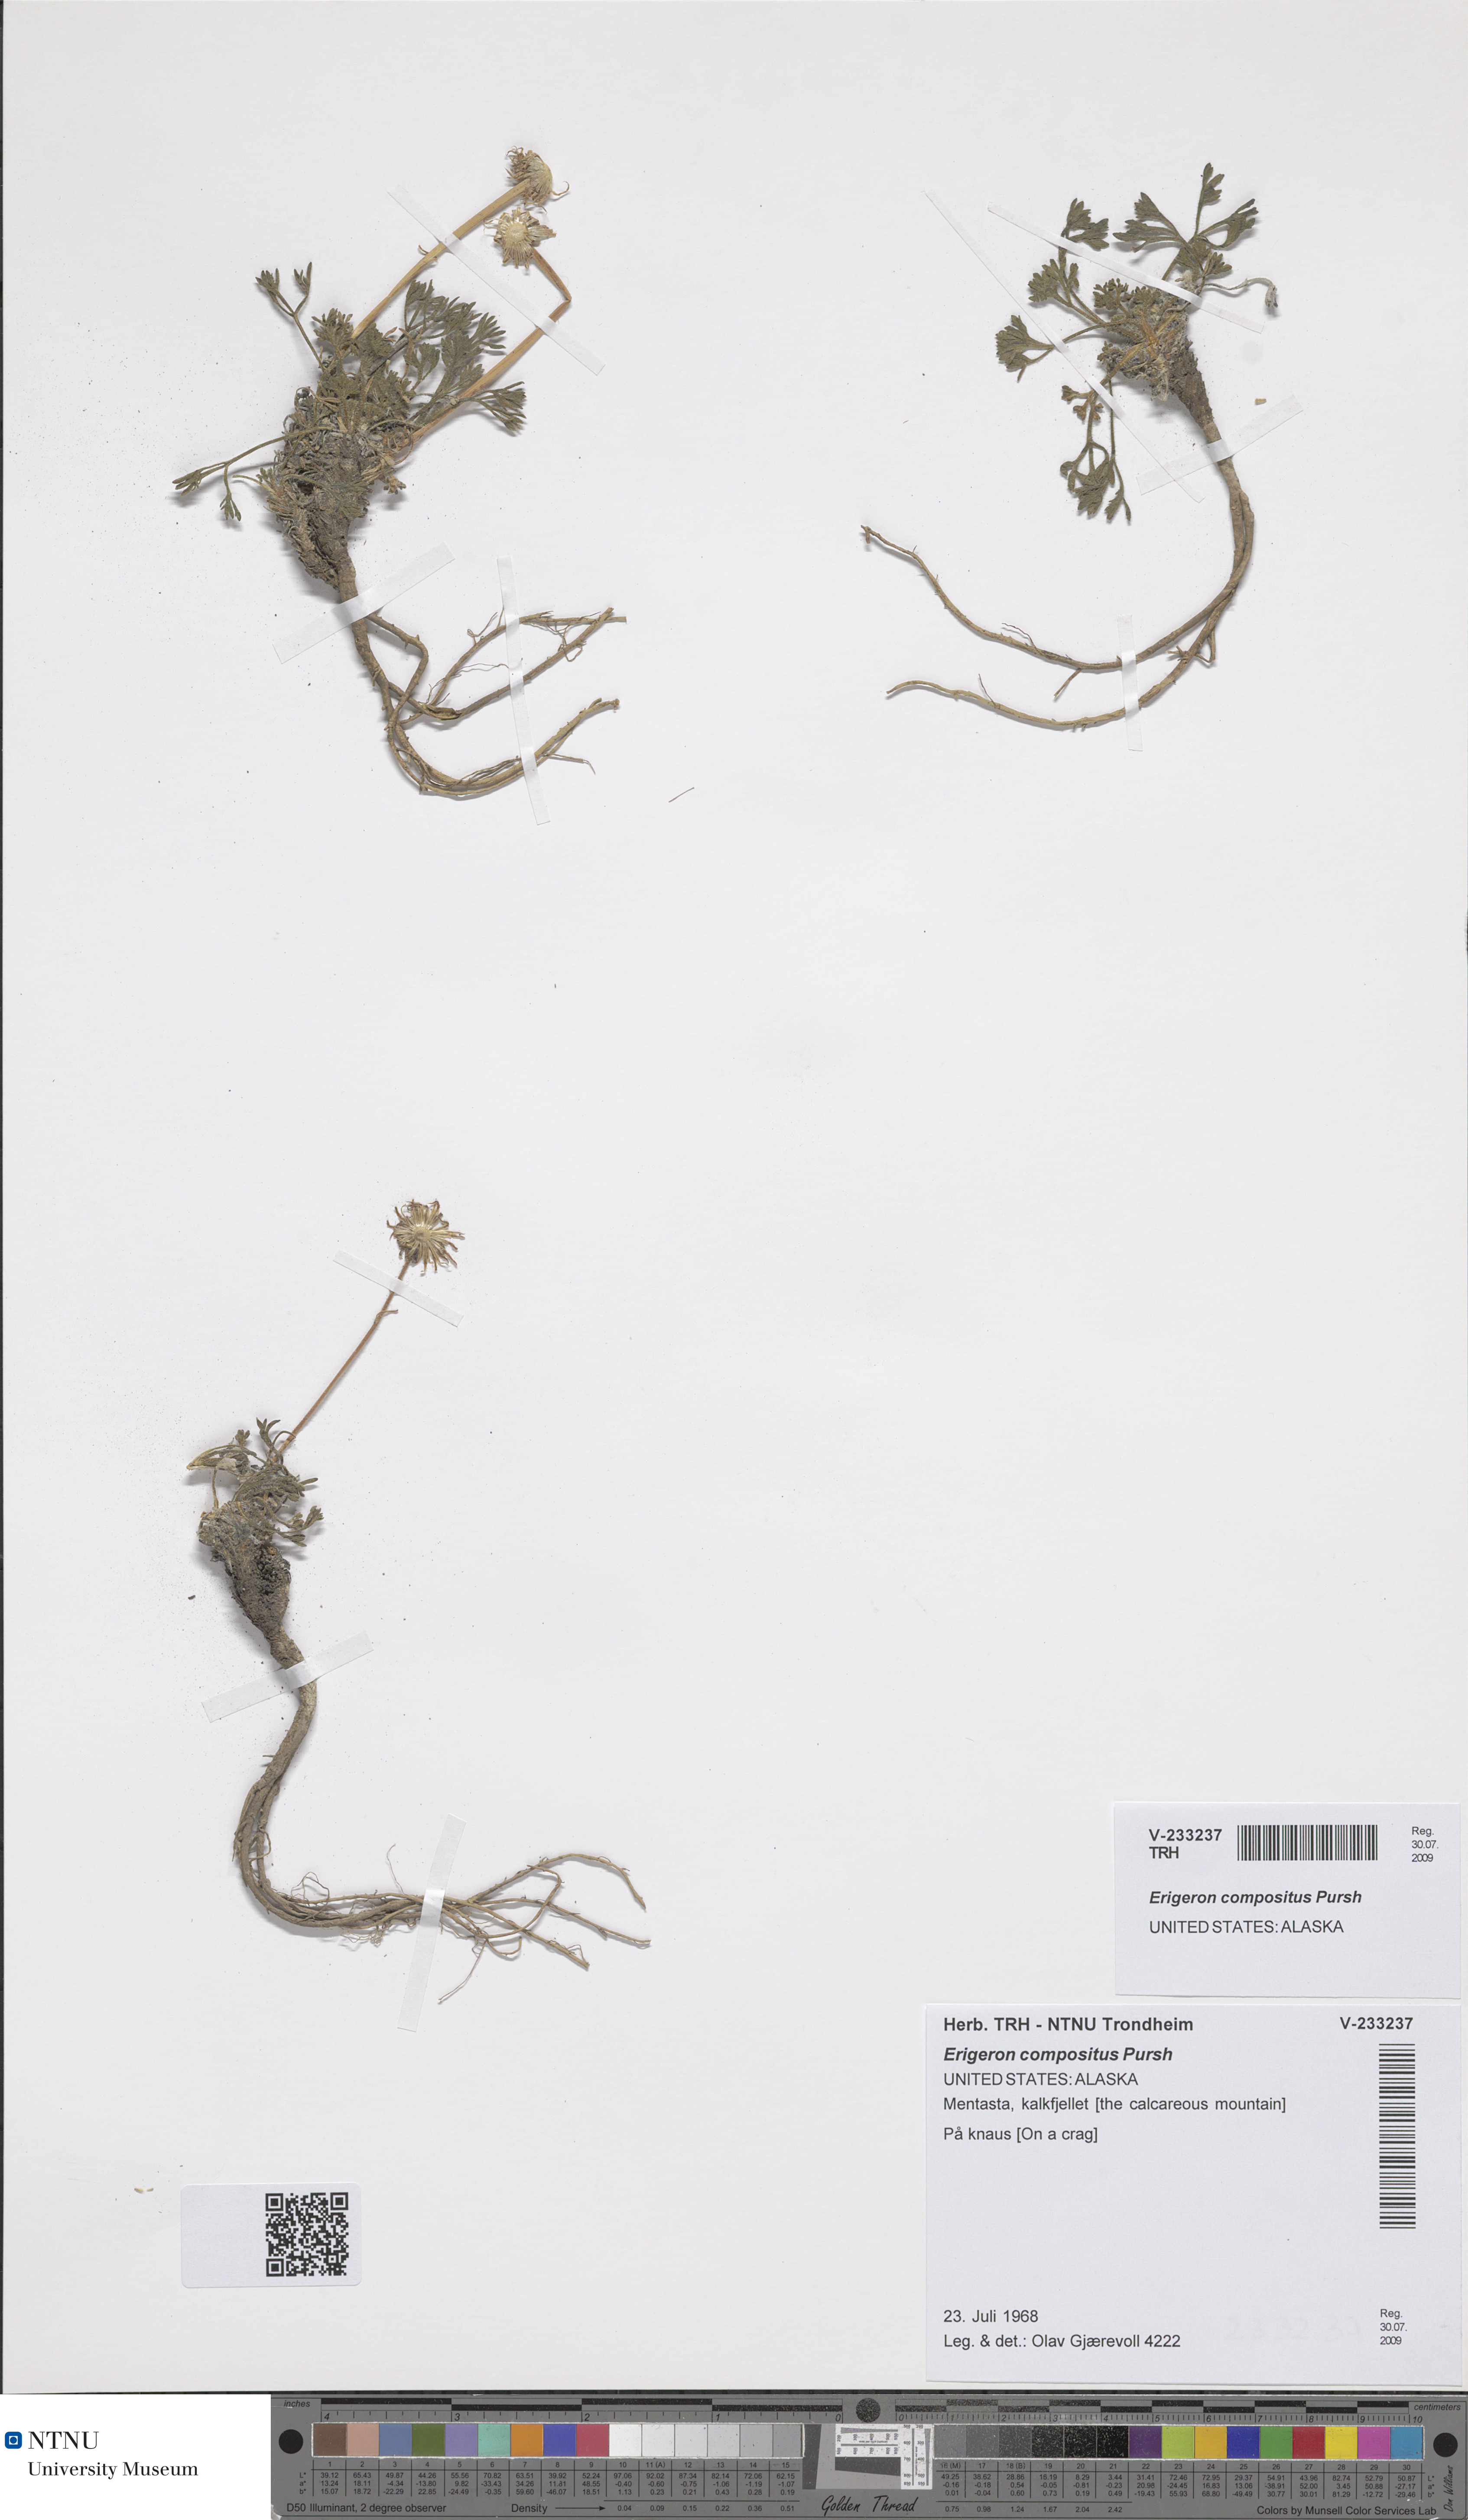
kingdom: Plantae
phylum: Tracheophyta
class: Magnoliopsida
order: Asterales
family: Asteraceae
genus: Erigeron
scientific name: Erigeron compositus
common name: Dwarf mountain fleabane
